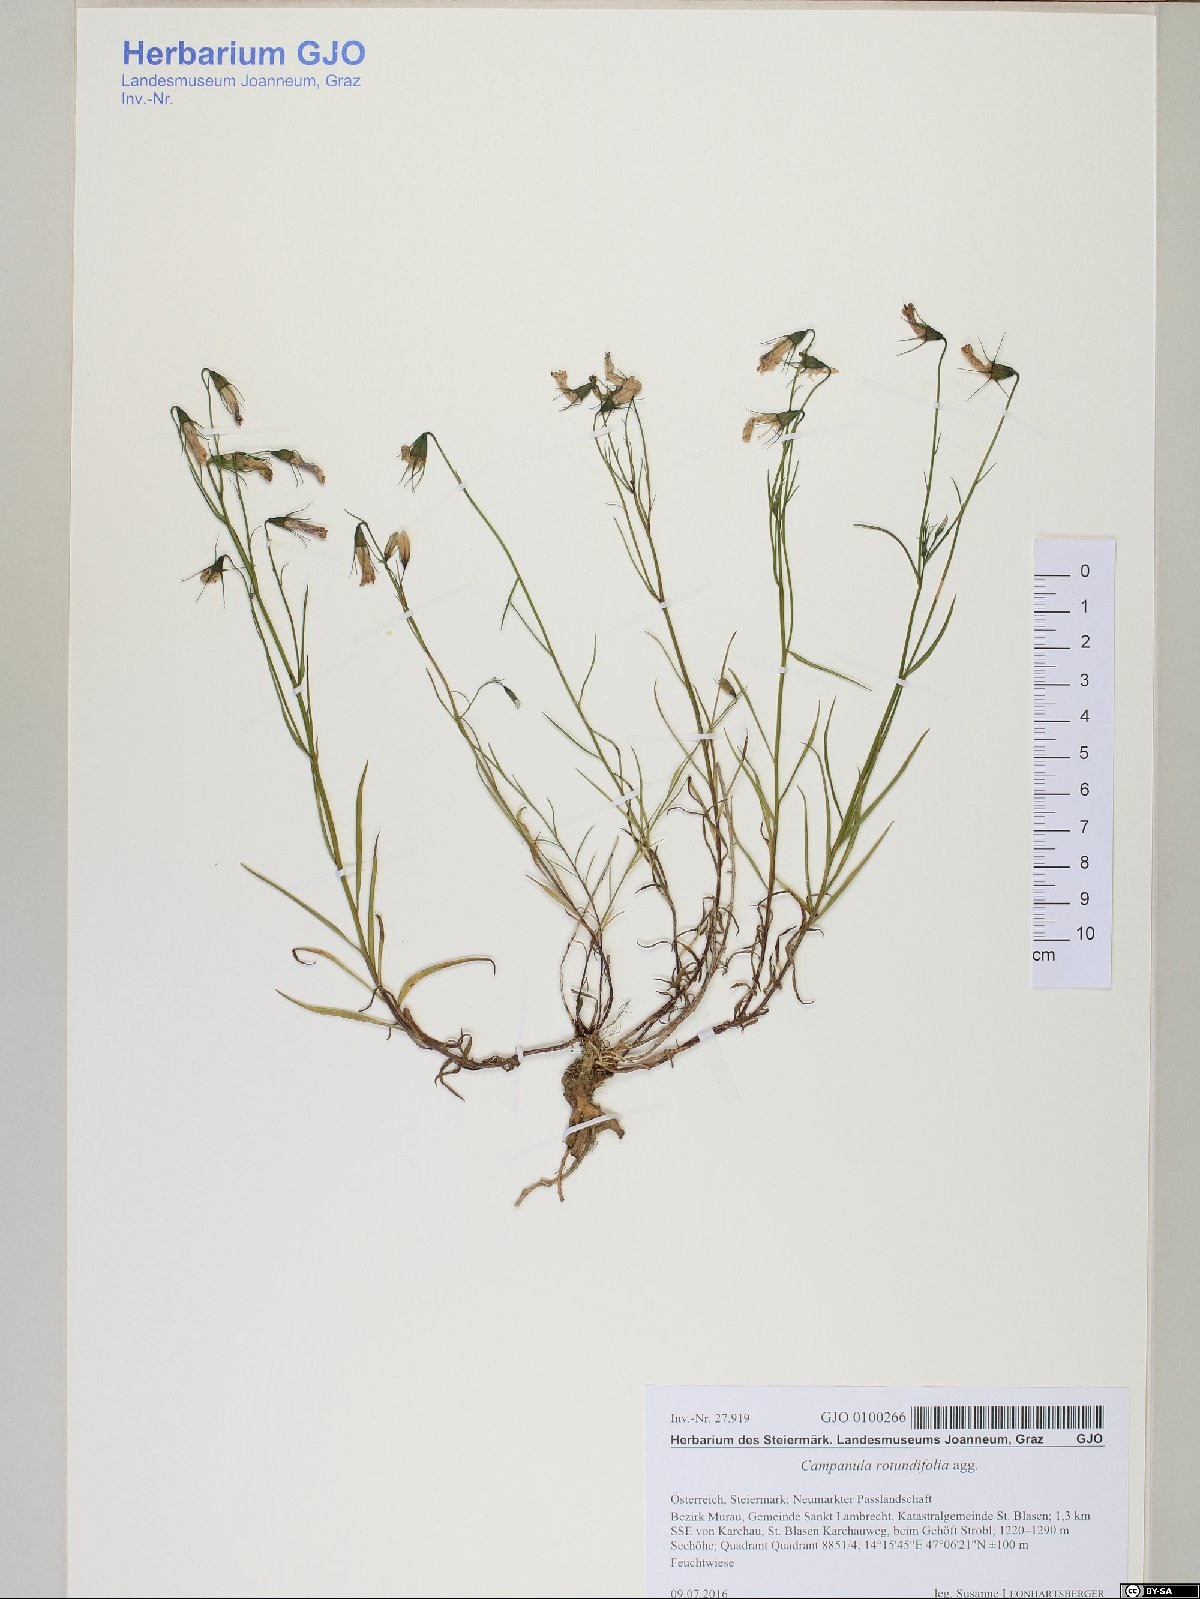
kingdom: Plantae
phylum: Tracheophyta
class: Magnoliopsida
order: Asterales
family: Campanulaceae
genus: Campanula
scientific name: Campanula rotundifolia
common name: Harebell
